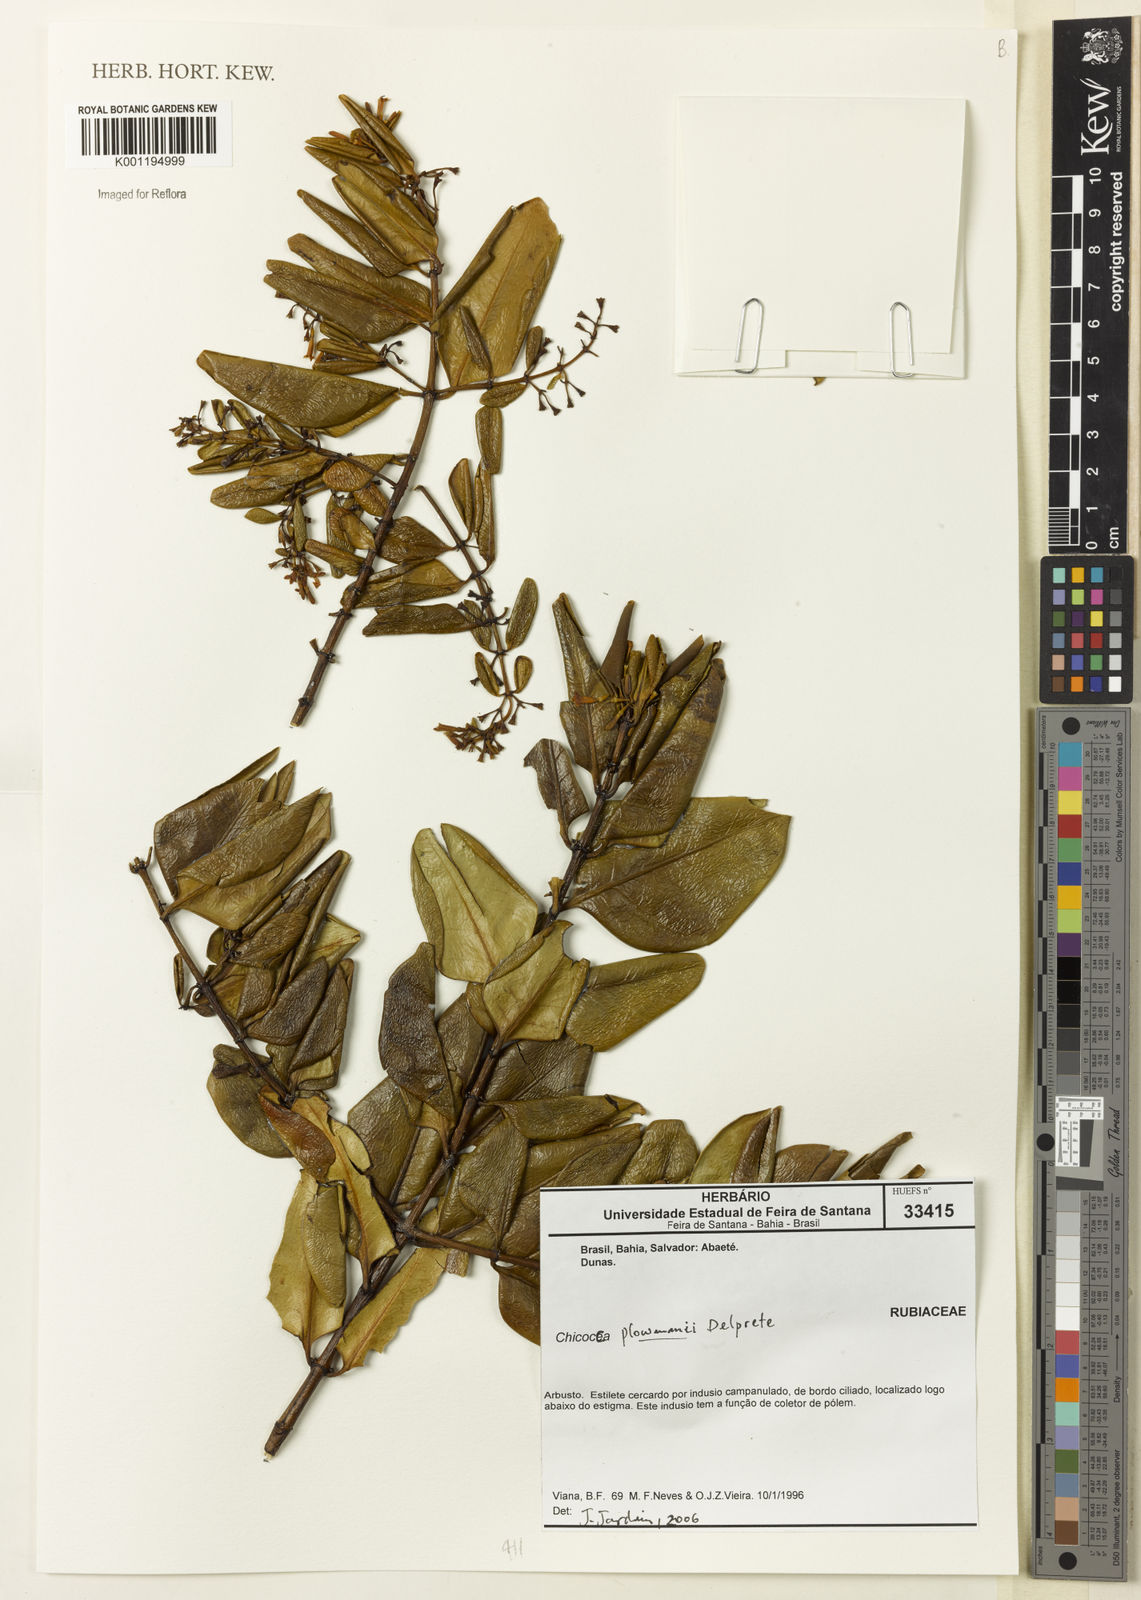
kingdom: Plantae
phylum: Tracheophyta
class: Magnoliopsida
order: Gentianales
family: Rubiaceae
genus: Salzmannia
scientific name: Salzmannia plowmanii
